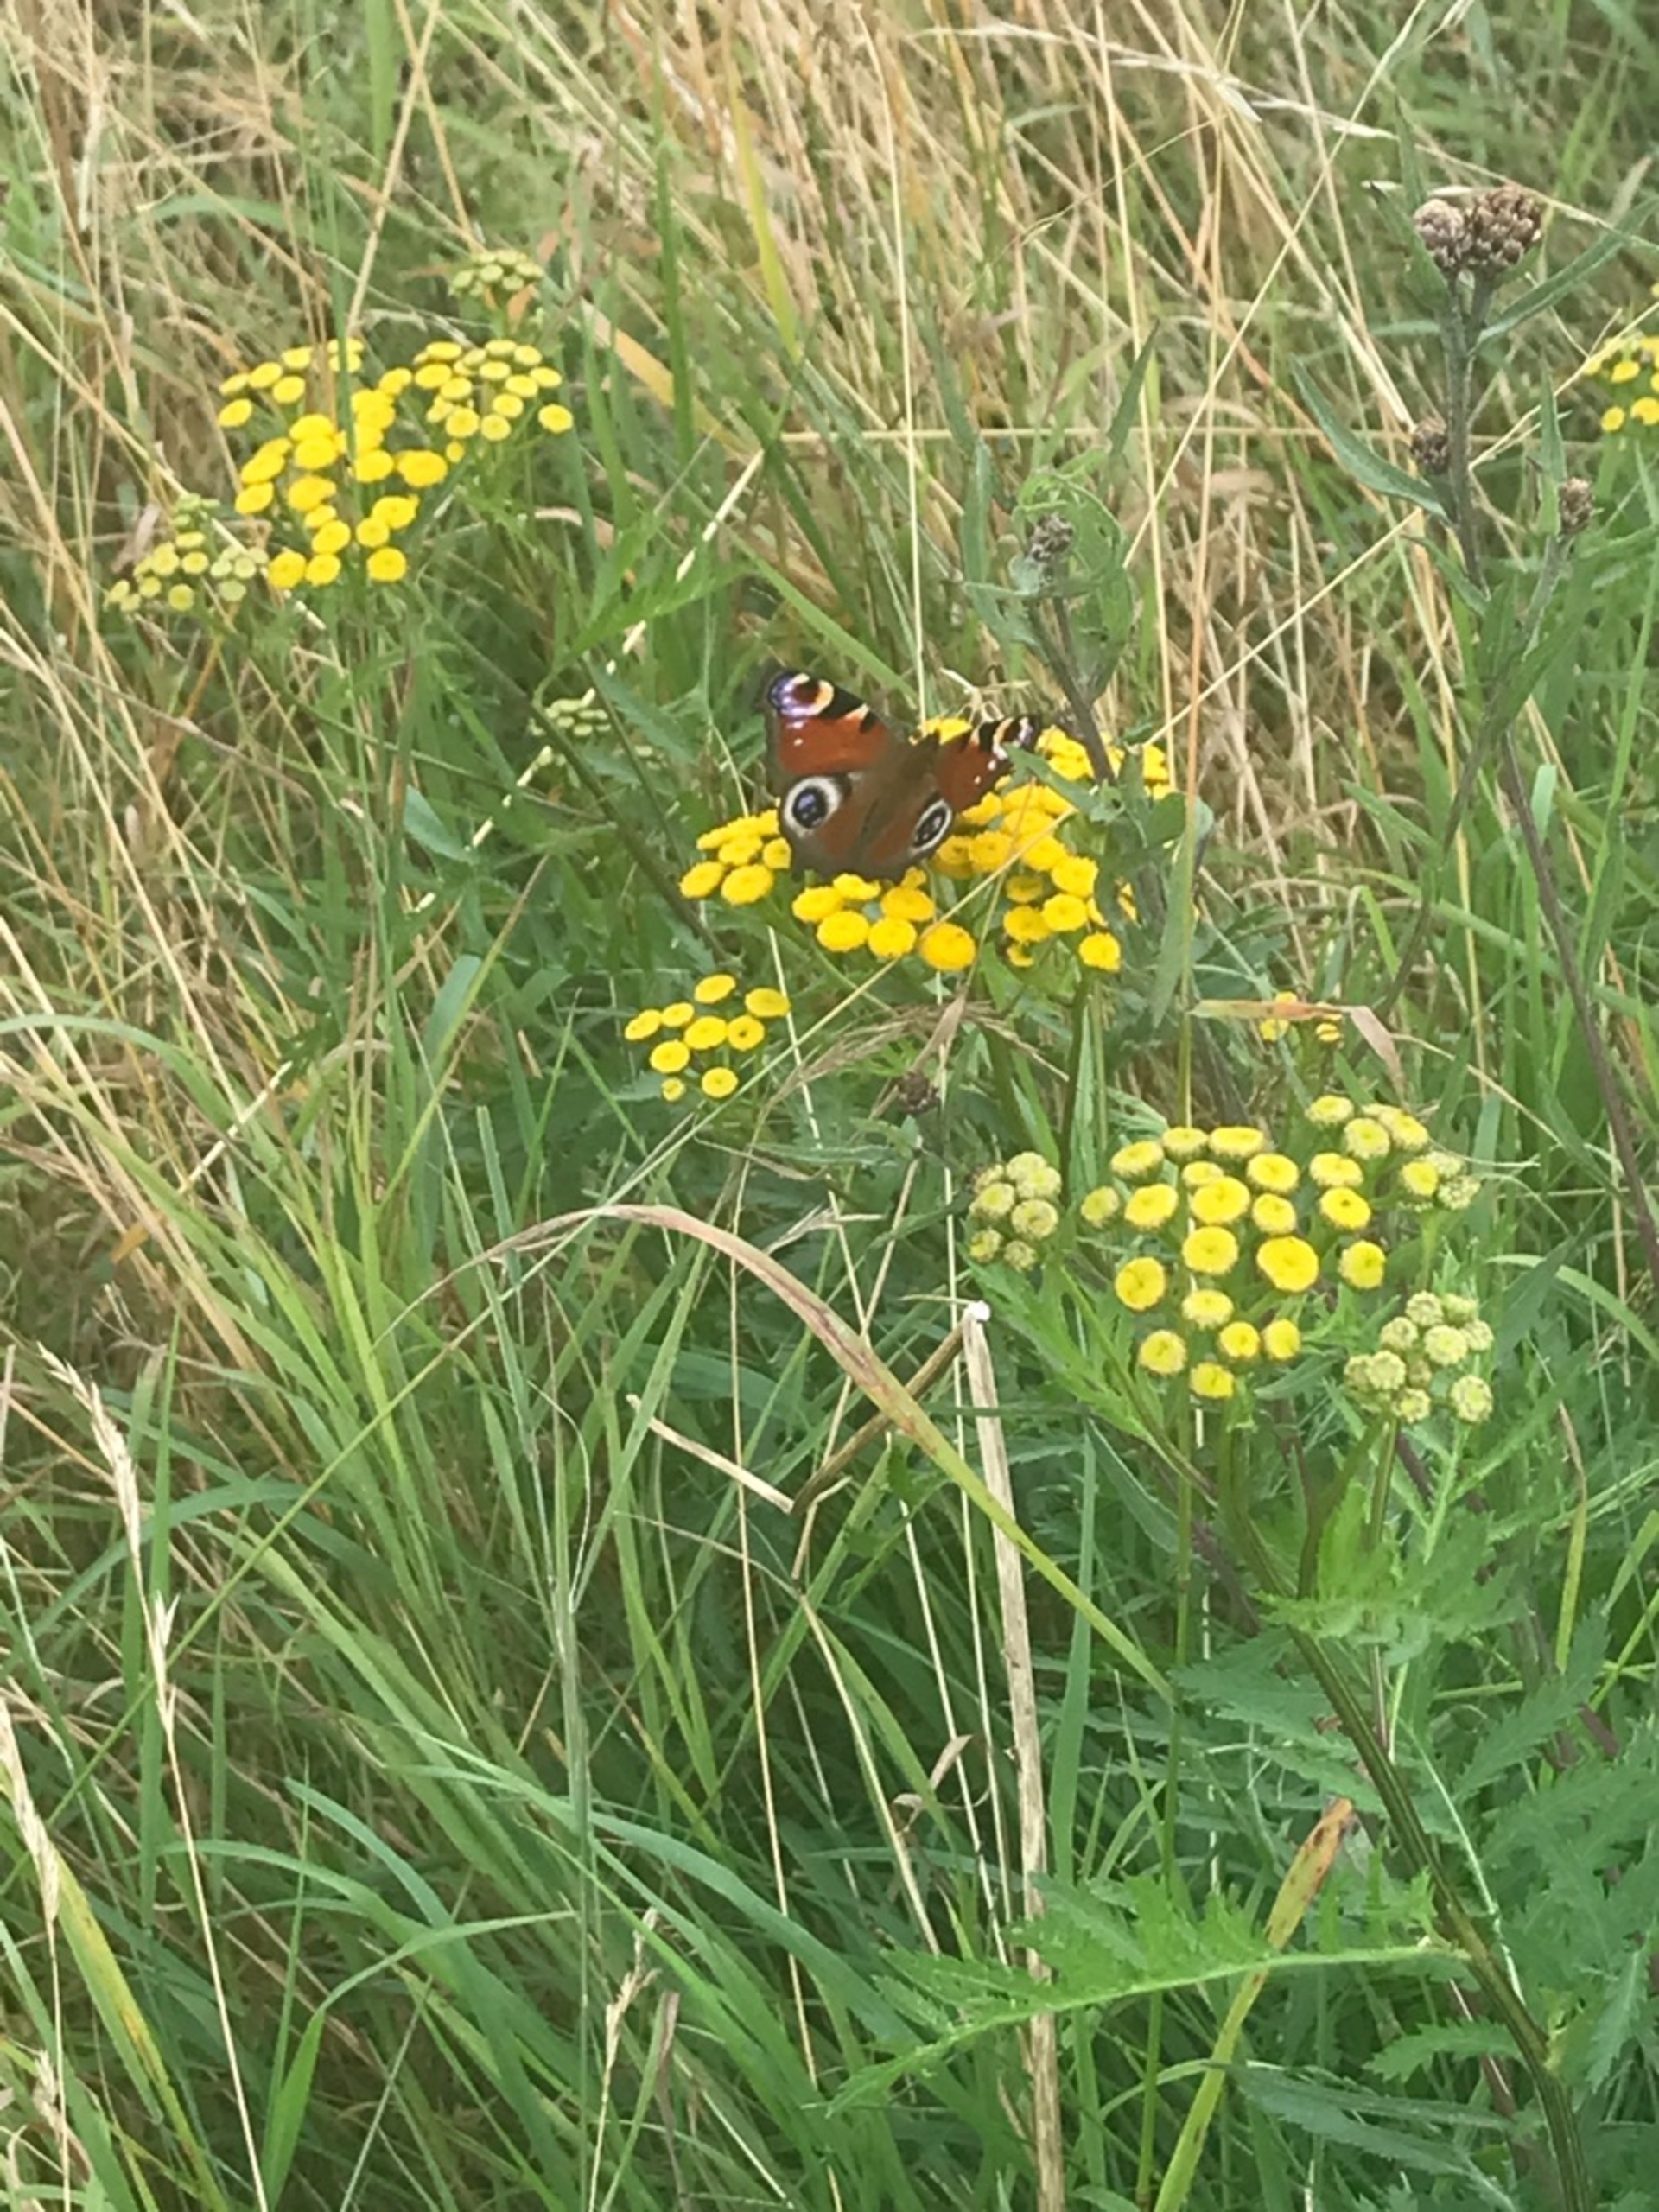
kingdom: Animalia
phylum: Arthropoda
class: Insecta
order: Lepidoptera
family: Nymphalidae
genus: Aglais
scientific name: Aglais io
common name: Dagpåfugleøje
